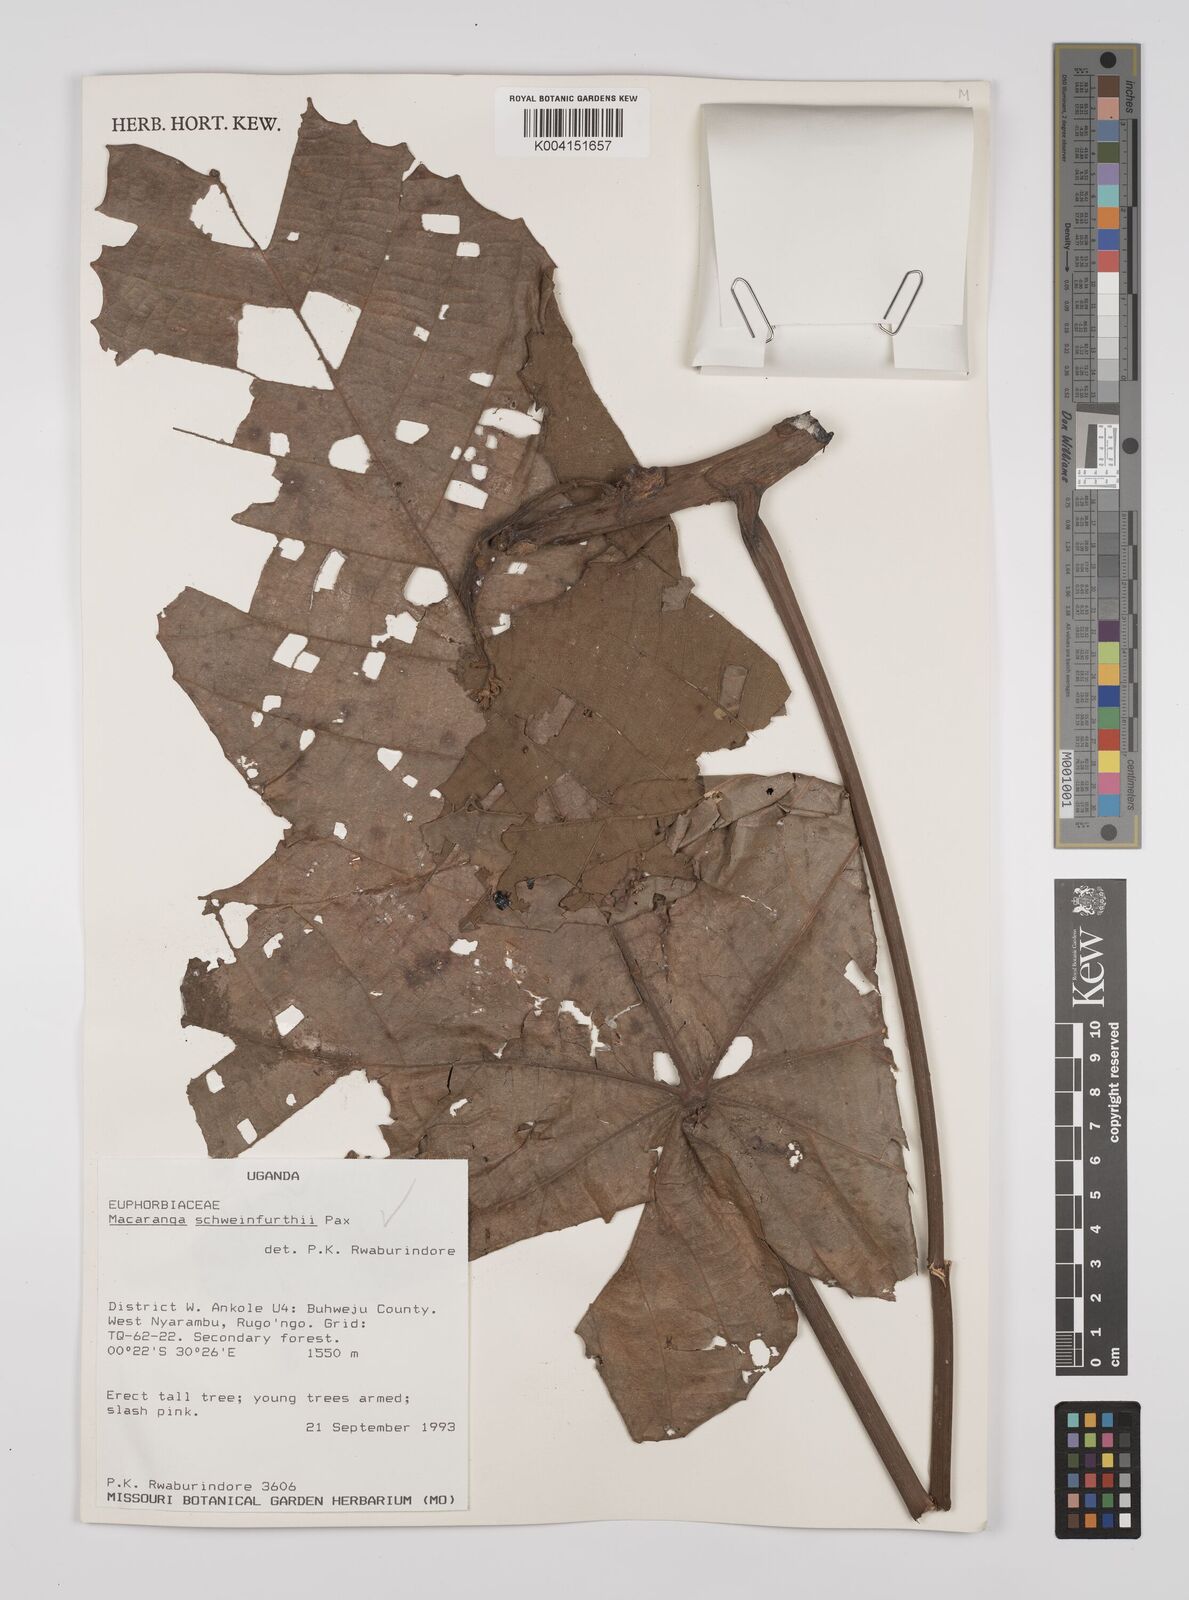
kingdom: Plantae
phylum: Tracheophyta
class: Magnoliopsida
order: Malpighiales
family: Euphorbiaceae
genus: Macaranga
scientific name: Macaranga schweinfurthii
